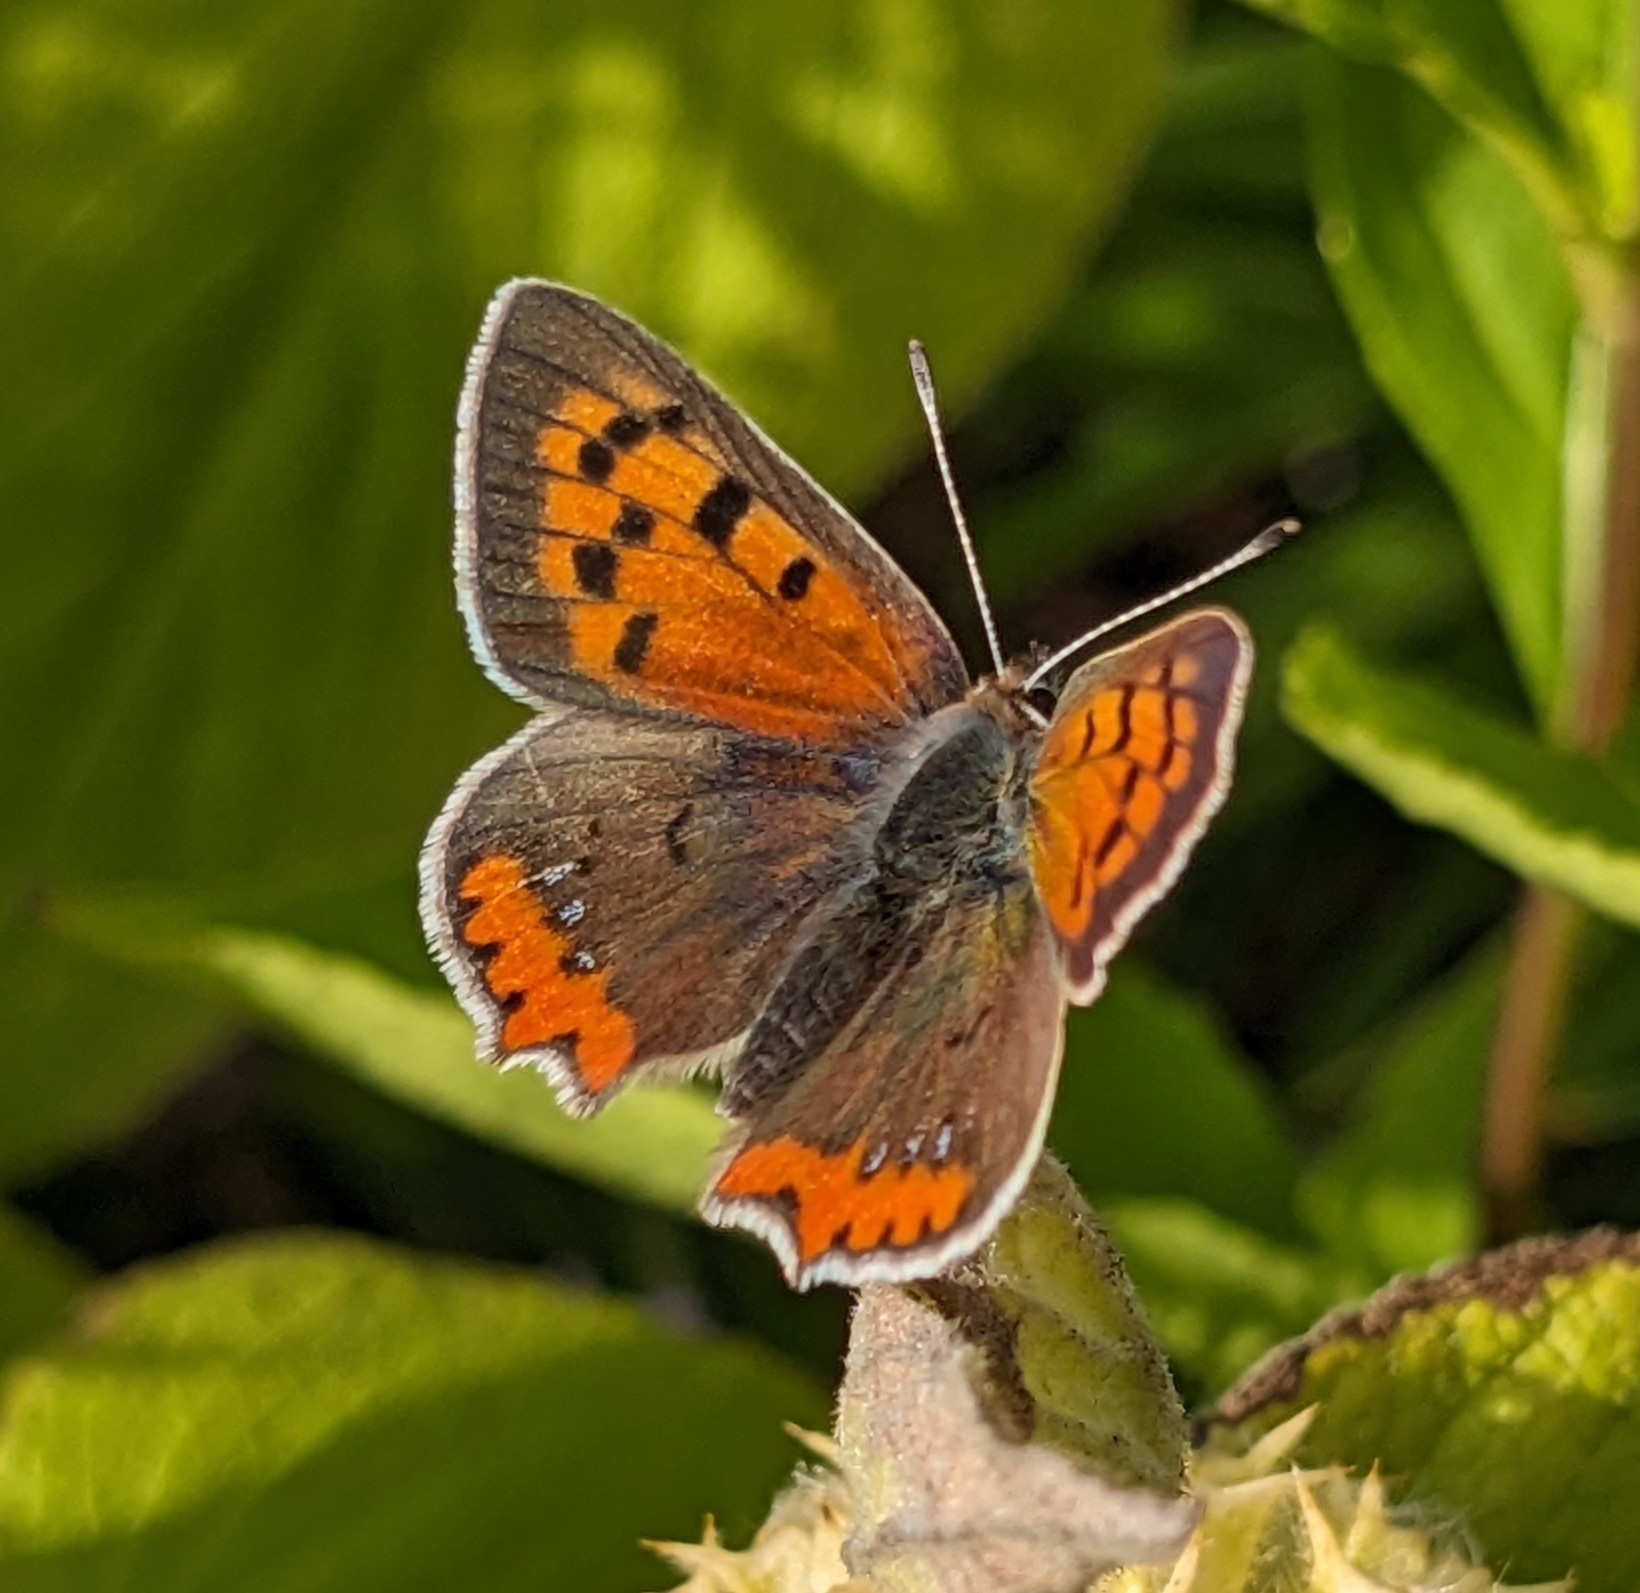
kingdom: Animalia
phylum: Arthropoda
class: Insecta
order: Lepidoptera
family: Lycaenidae
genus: Lycaena
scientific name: Lycaena phlaeas
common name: Lille ildfugl
